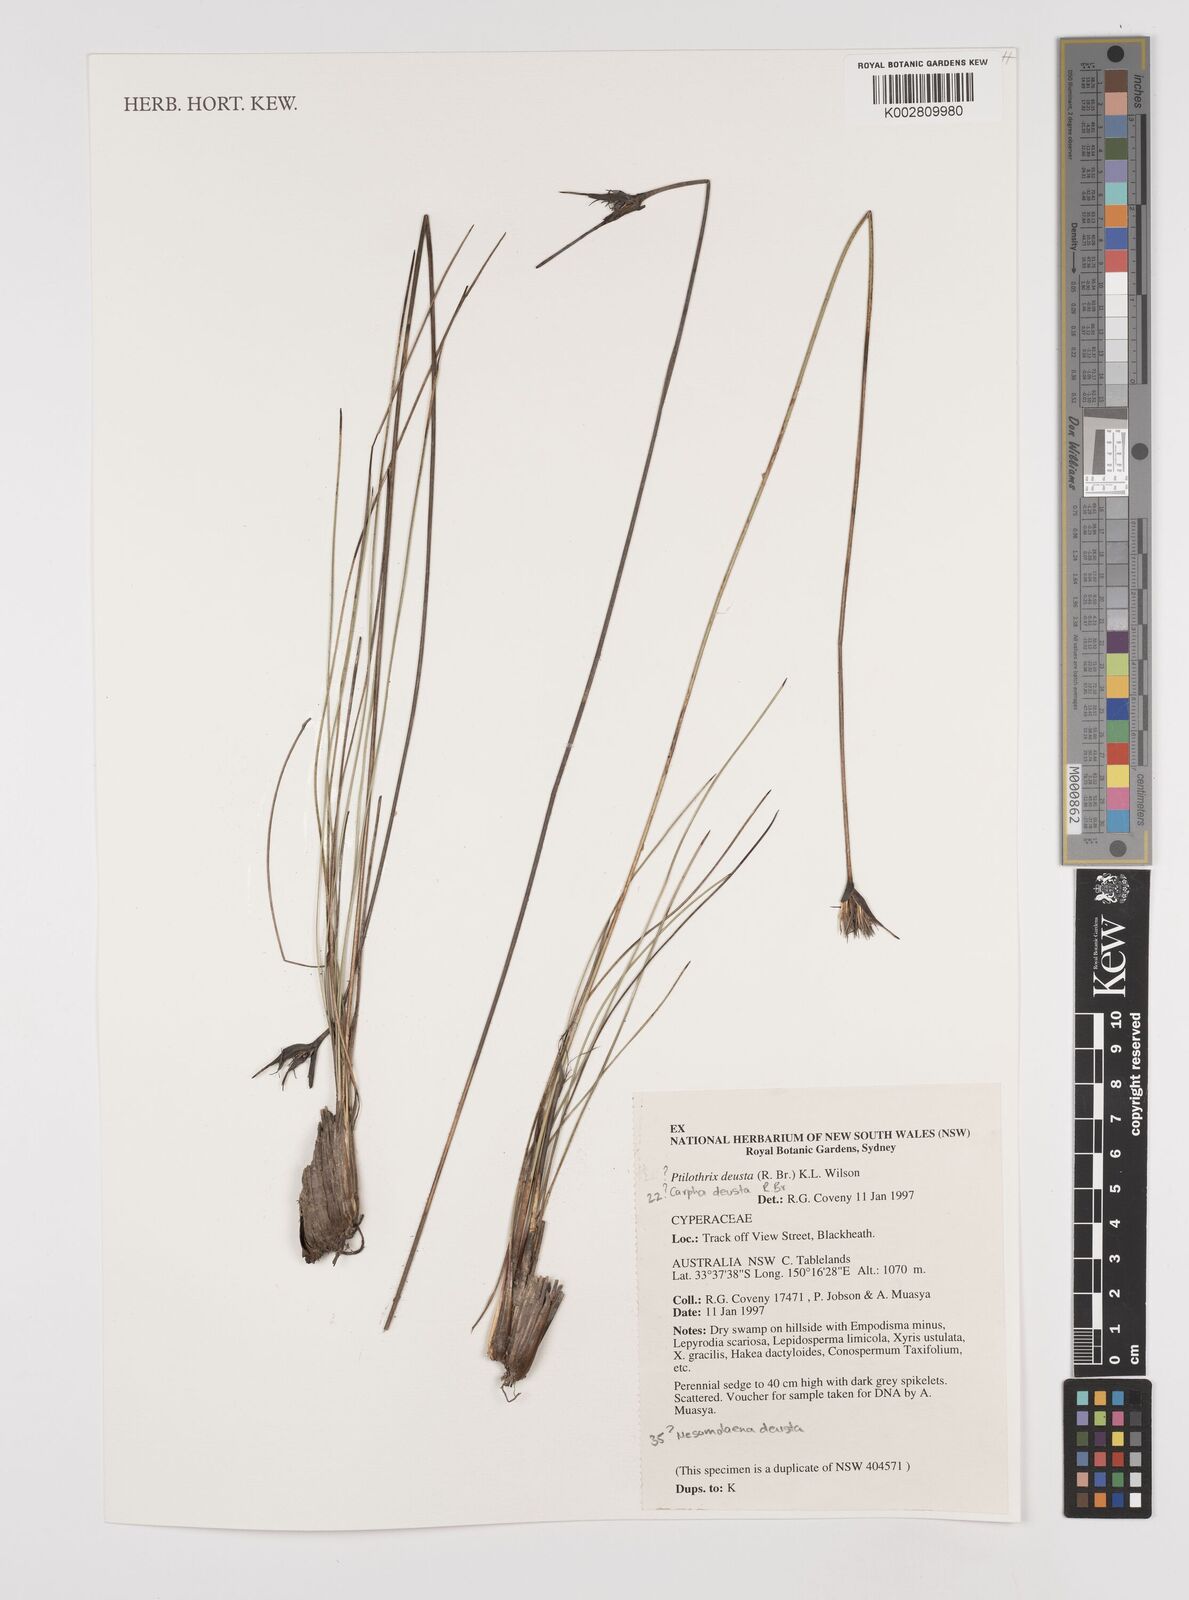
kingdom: Plantae
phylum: Tracheophyta
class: Liliopsida
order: Poales
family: Cyperaceae
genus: Ptilothrix
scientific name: Ptilothrix deusta
